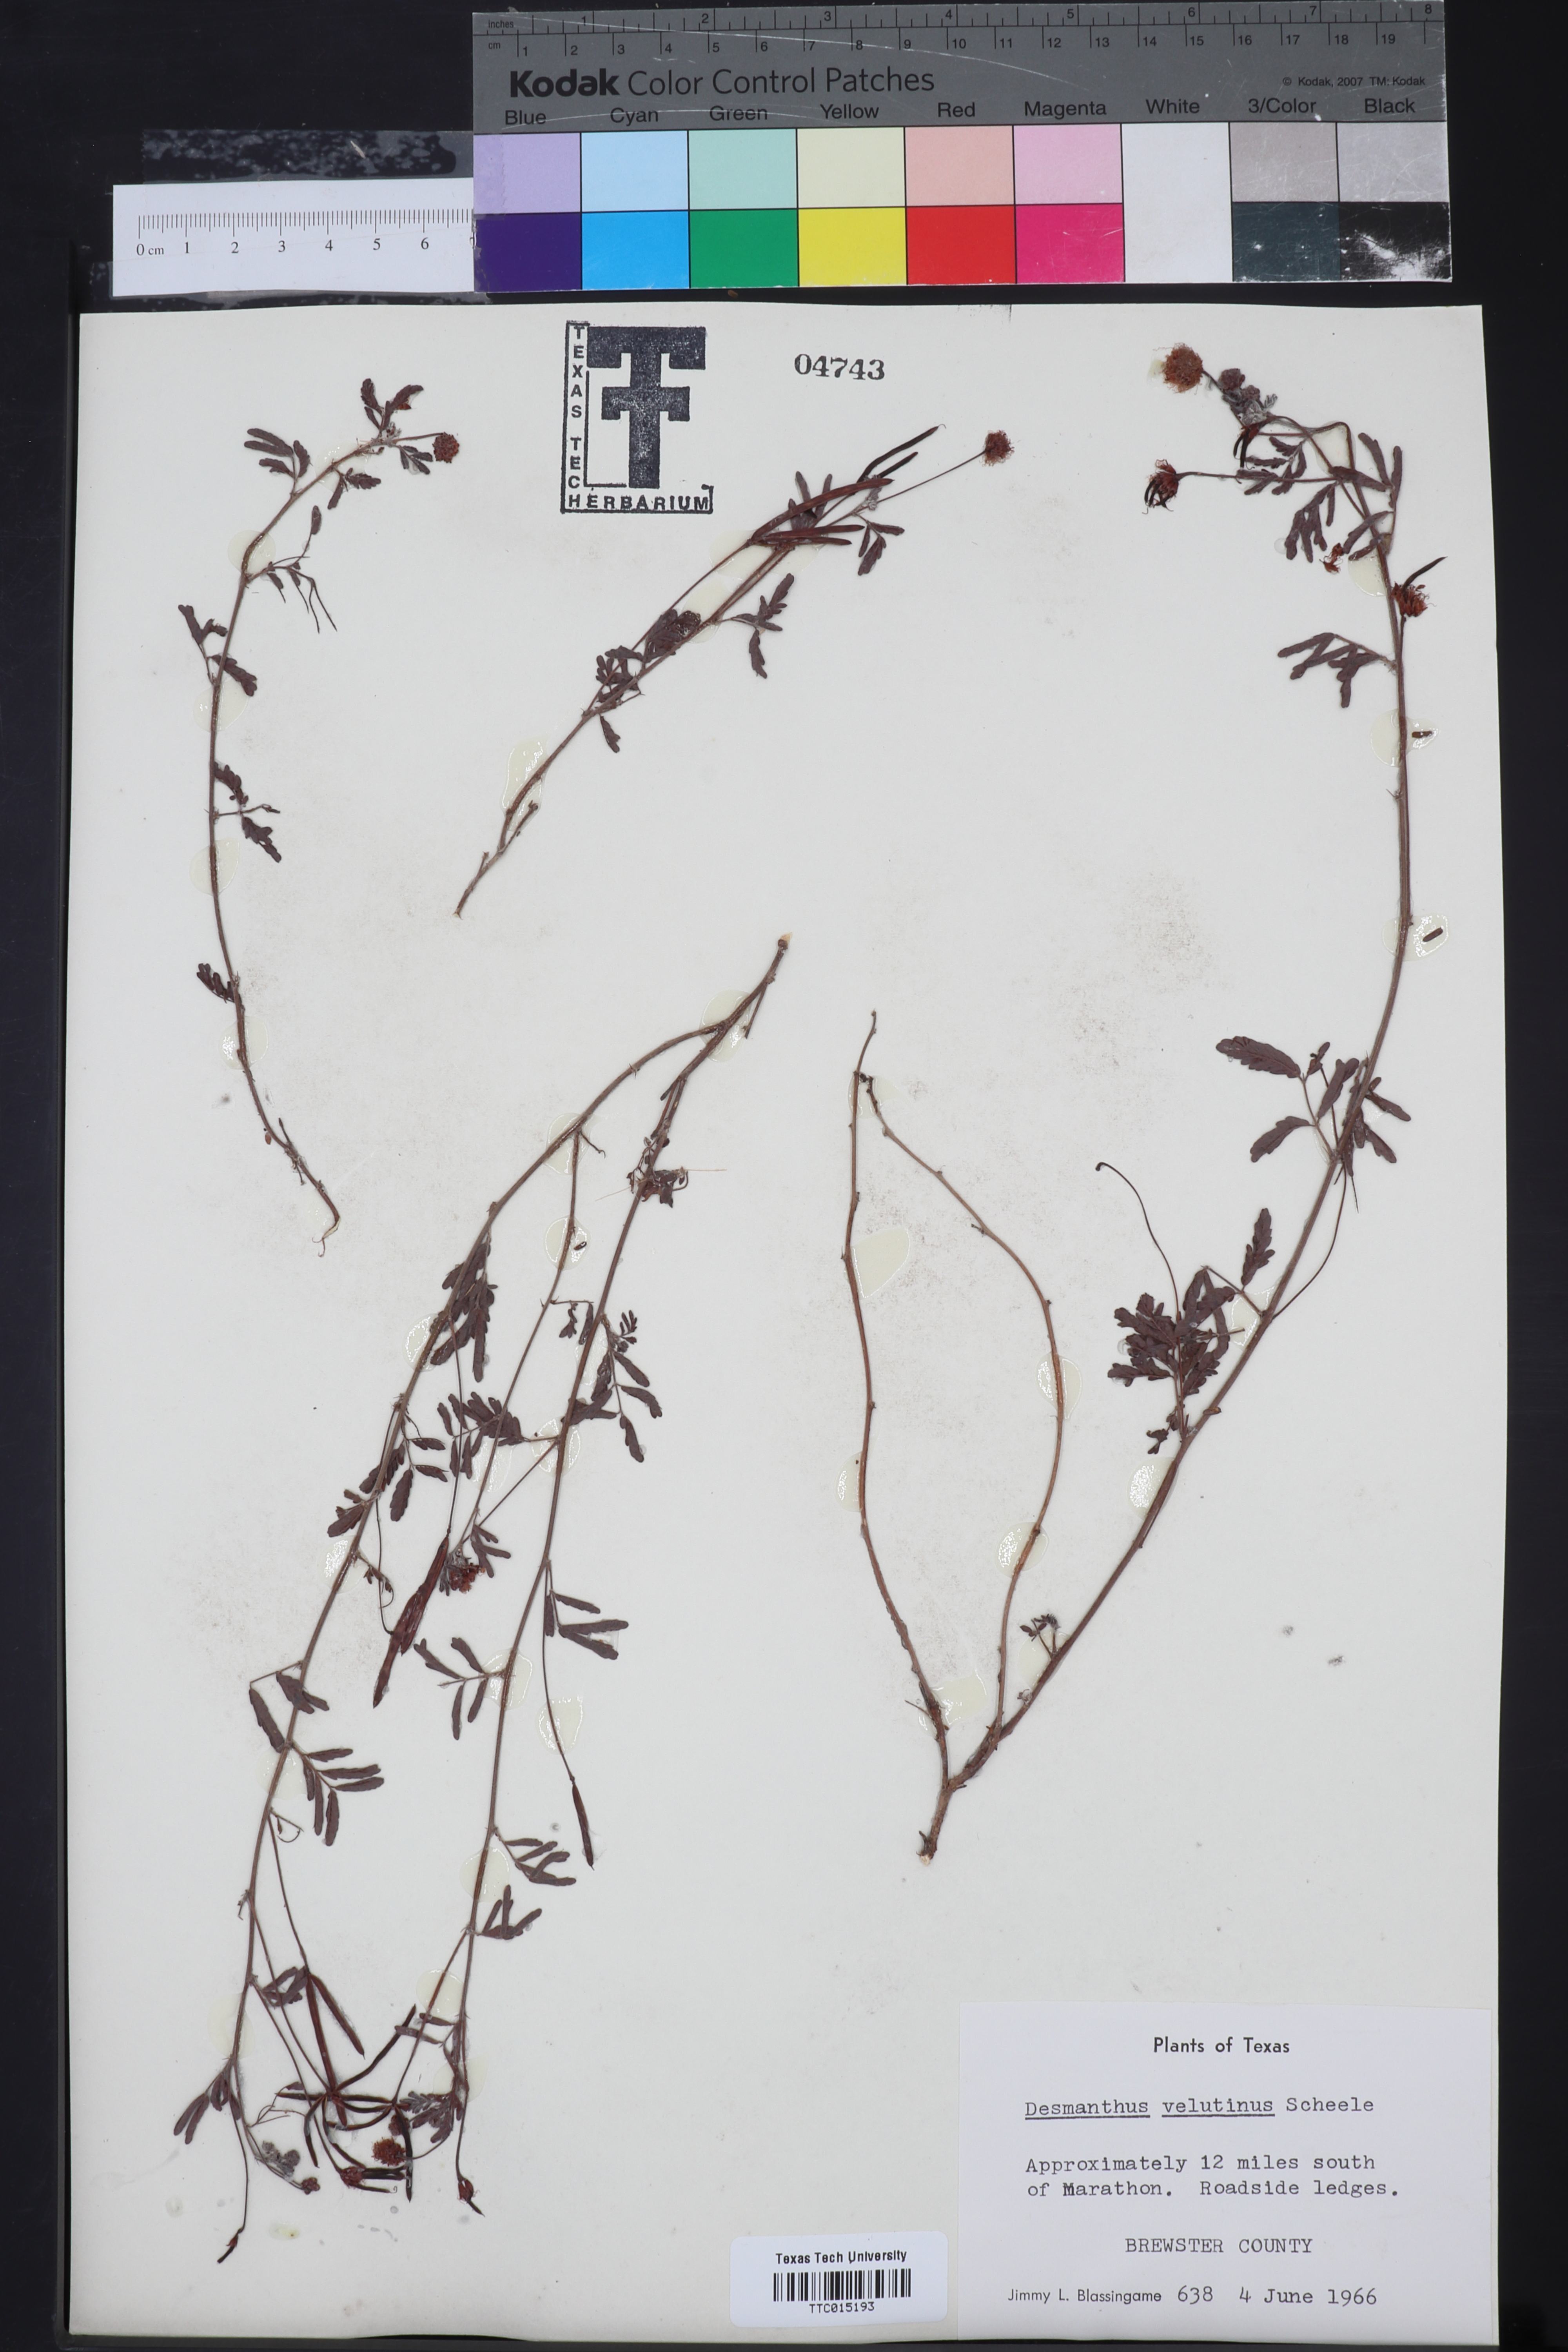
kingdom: Plantae
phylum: Tracheophyta
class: Magnoliopsida
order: Fabales
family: Fabaceae
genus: Desmanthus
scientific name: Desmanthus velutinus
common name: Velvet bundle-flower
